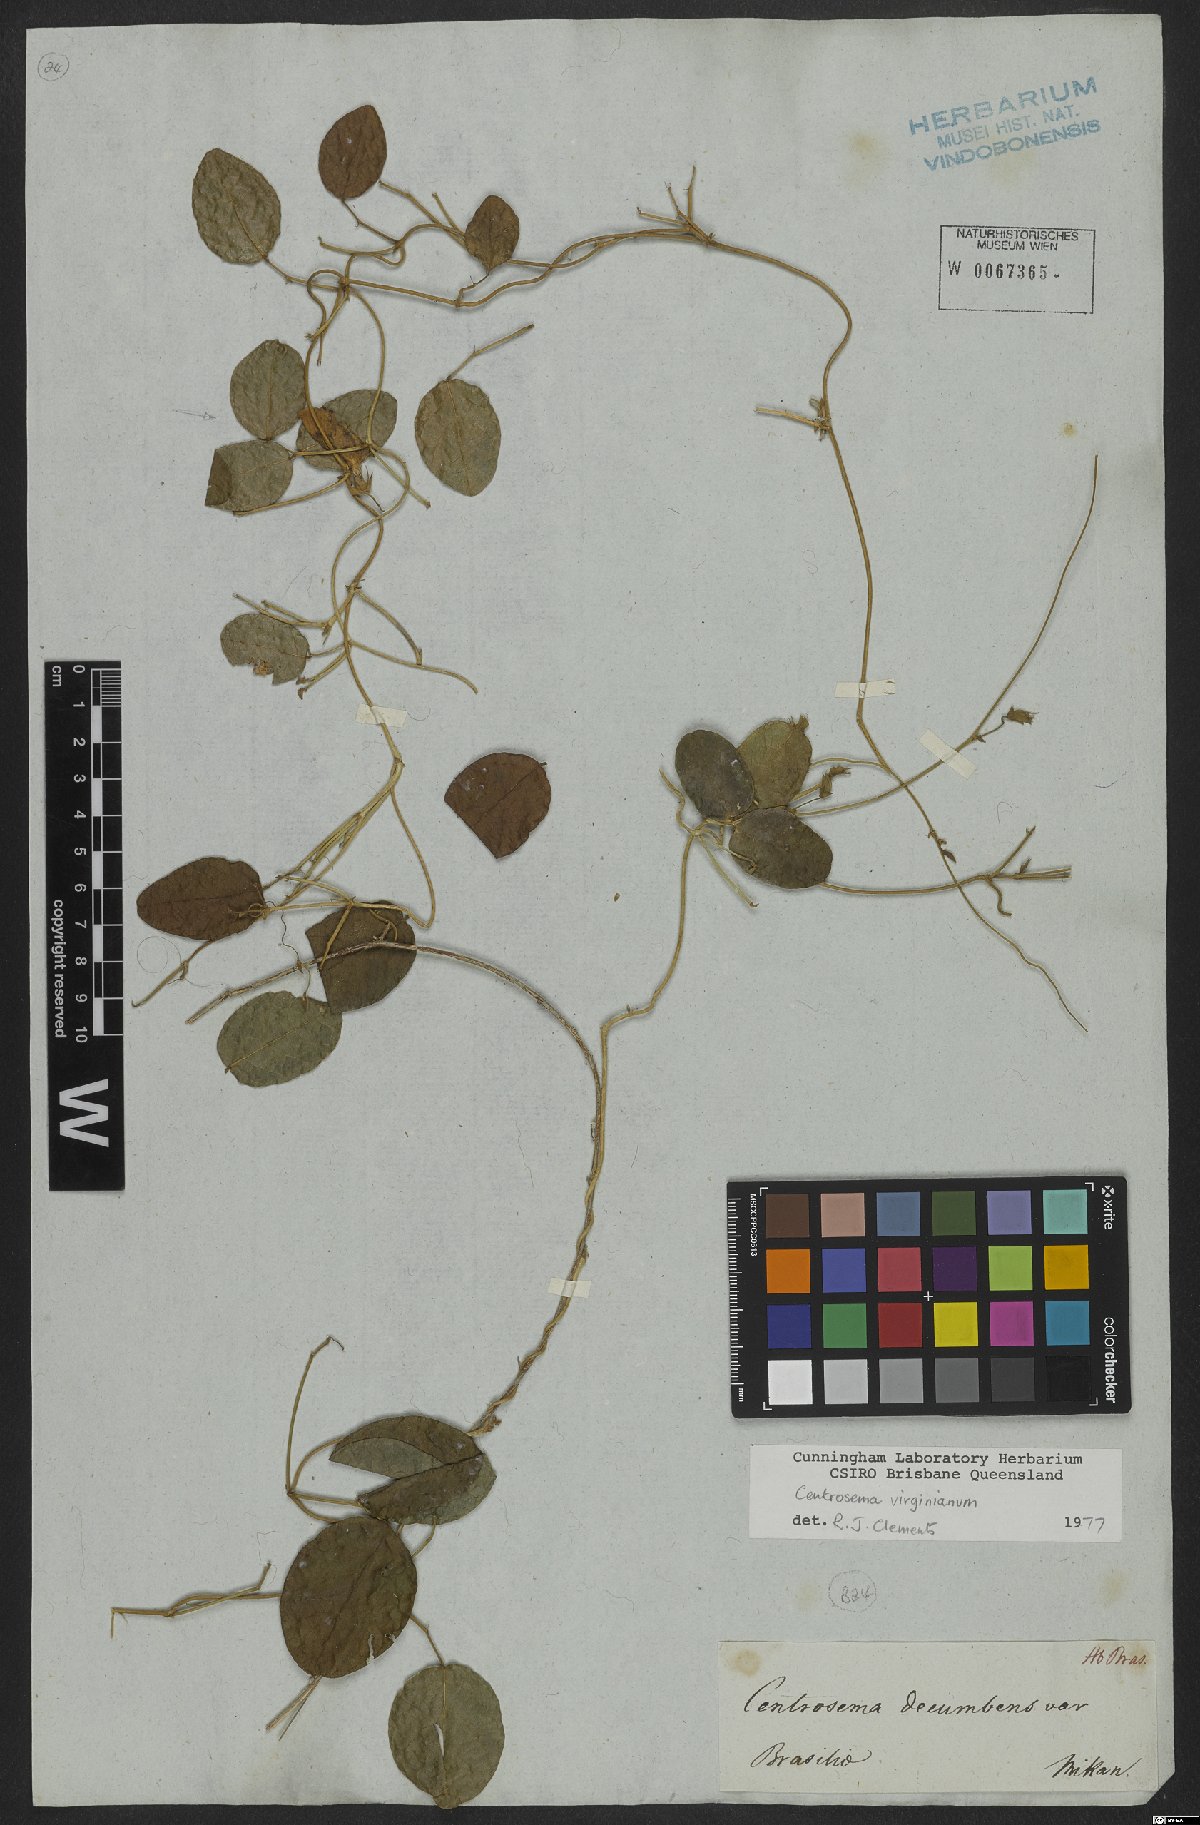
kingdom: Plantae
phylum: Tracheophyta
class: Magnoliopsida
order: Fabales
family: Fabaceae
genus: Centrosema
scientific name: Centrosema virginianum
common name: Butterfly-pea
